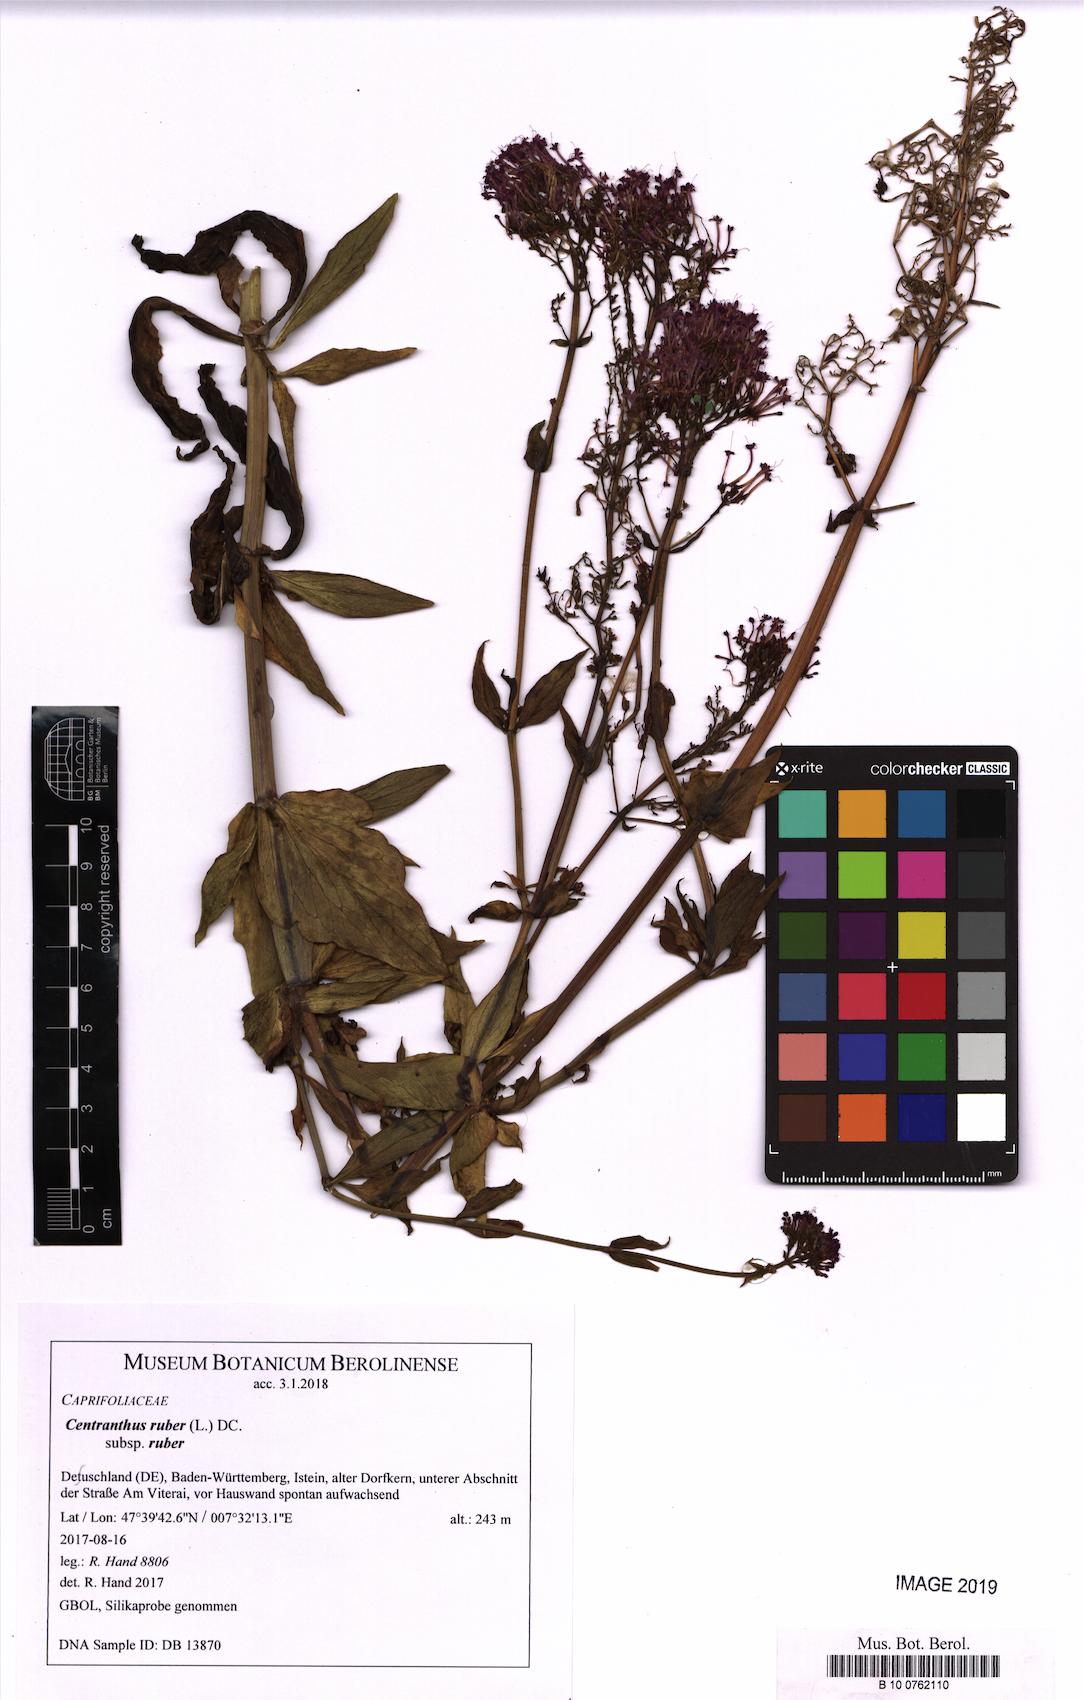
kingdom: Plantae
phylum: Tracheophyta
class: Magnoliopsida
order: Dipsacales
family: Caprifoliaceae
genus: Centranthus
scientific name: Centranthus ruber
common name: Red valerian
